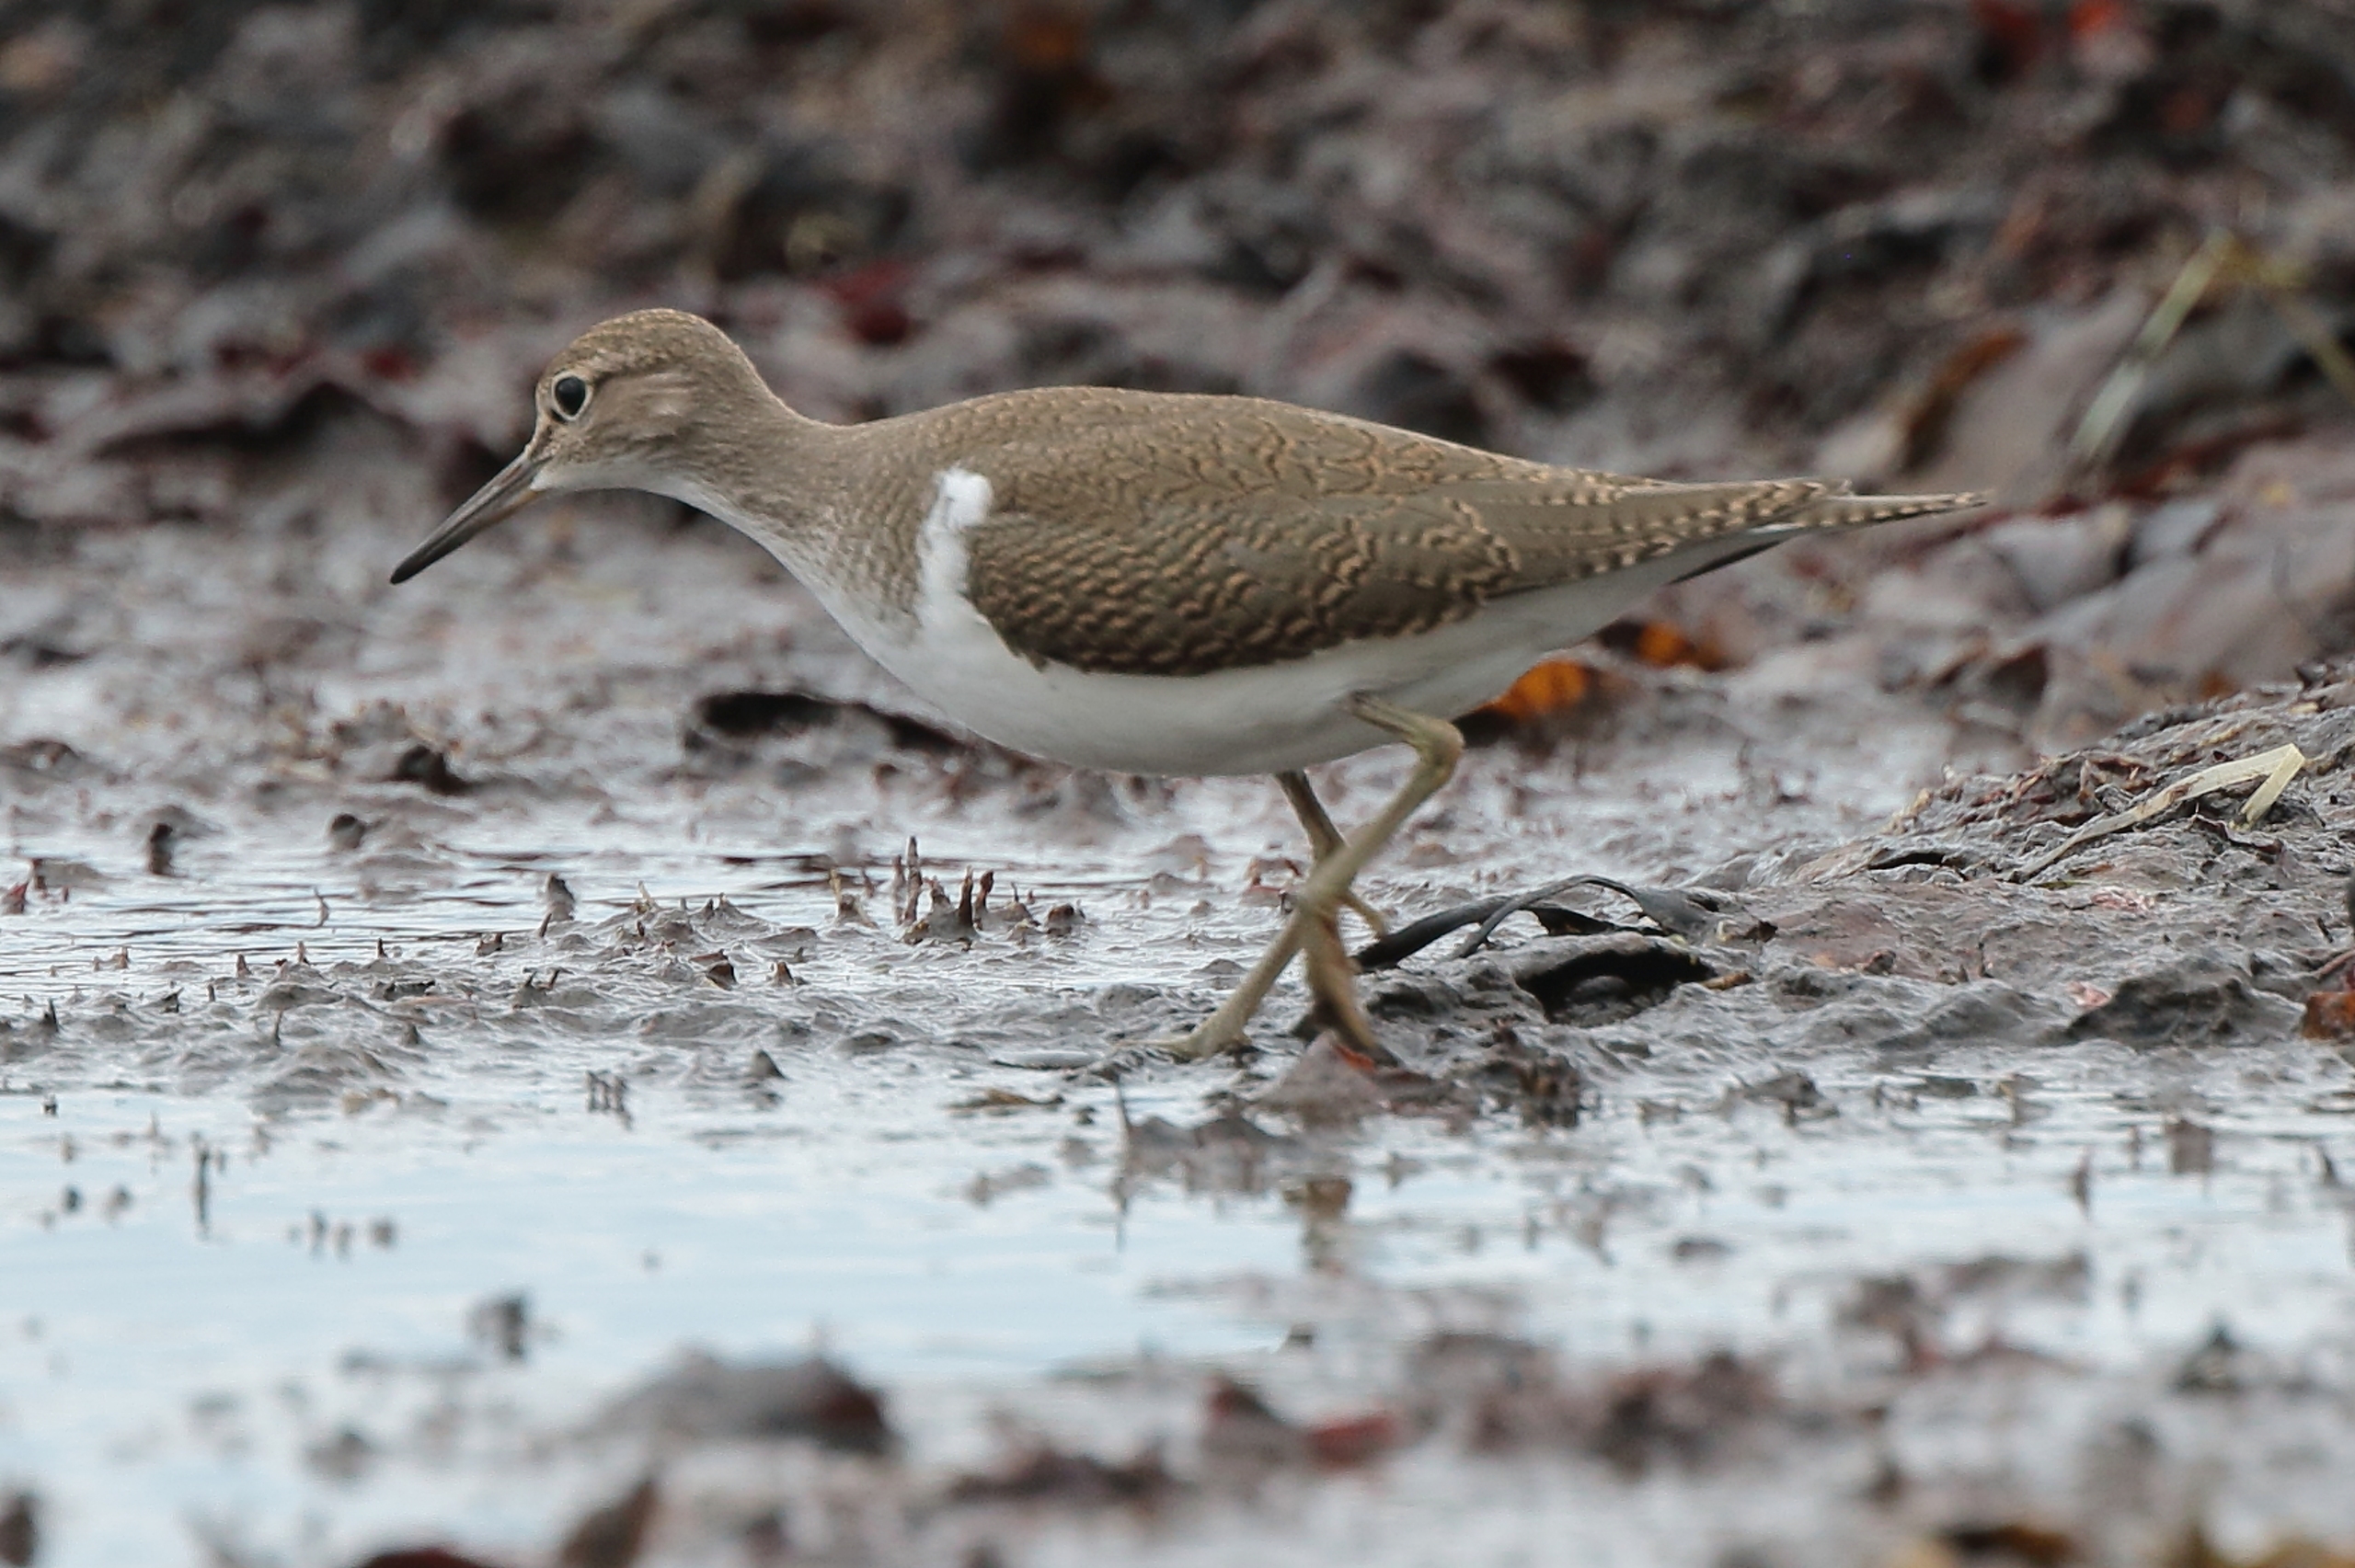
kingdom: Animalia
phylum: Chordata
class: Aves
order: Charadriiformes
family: Scolopacidae
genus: Actitis
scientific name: Actitis hypoleucos
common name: Mudderklire
